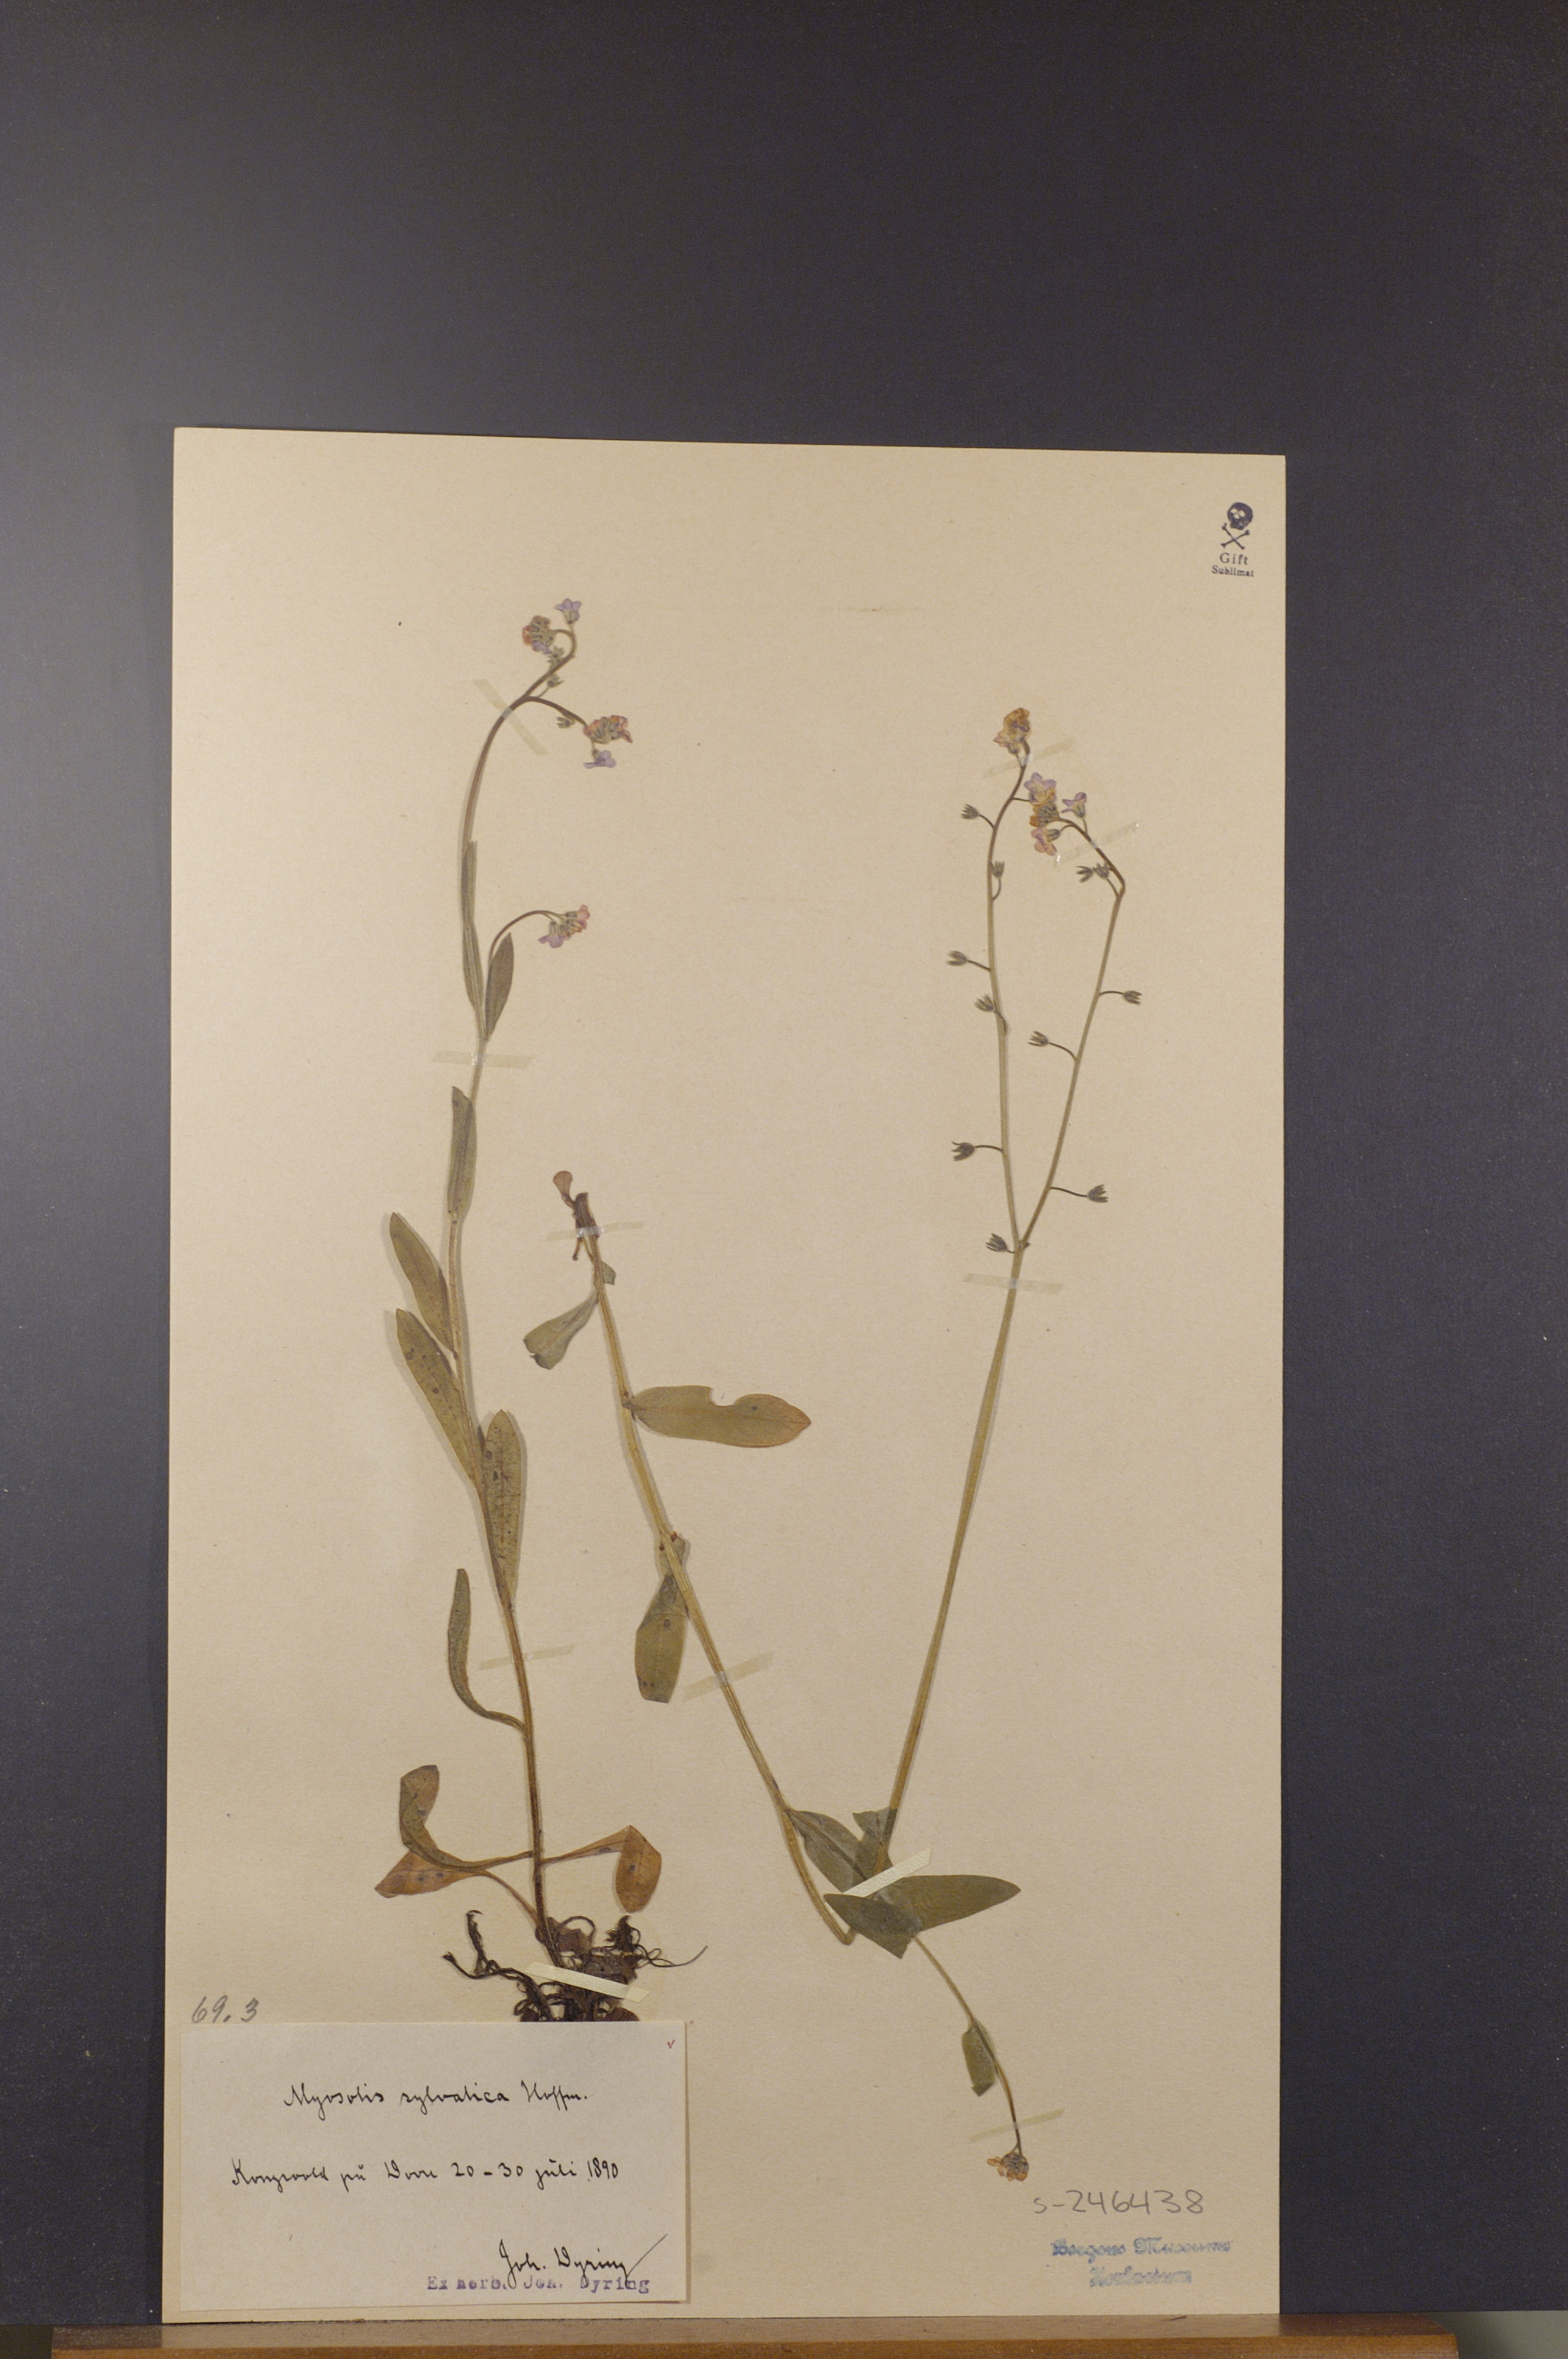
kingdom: Plantae
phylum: Tracheophyta
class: Magnoliopsida
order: Boraginales
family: Boraginaceae
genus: Myosotis
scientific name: Myosotis decumbens
